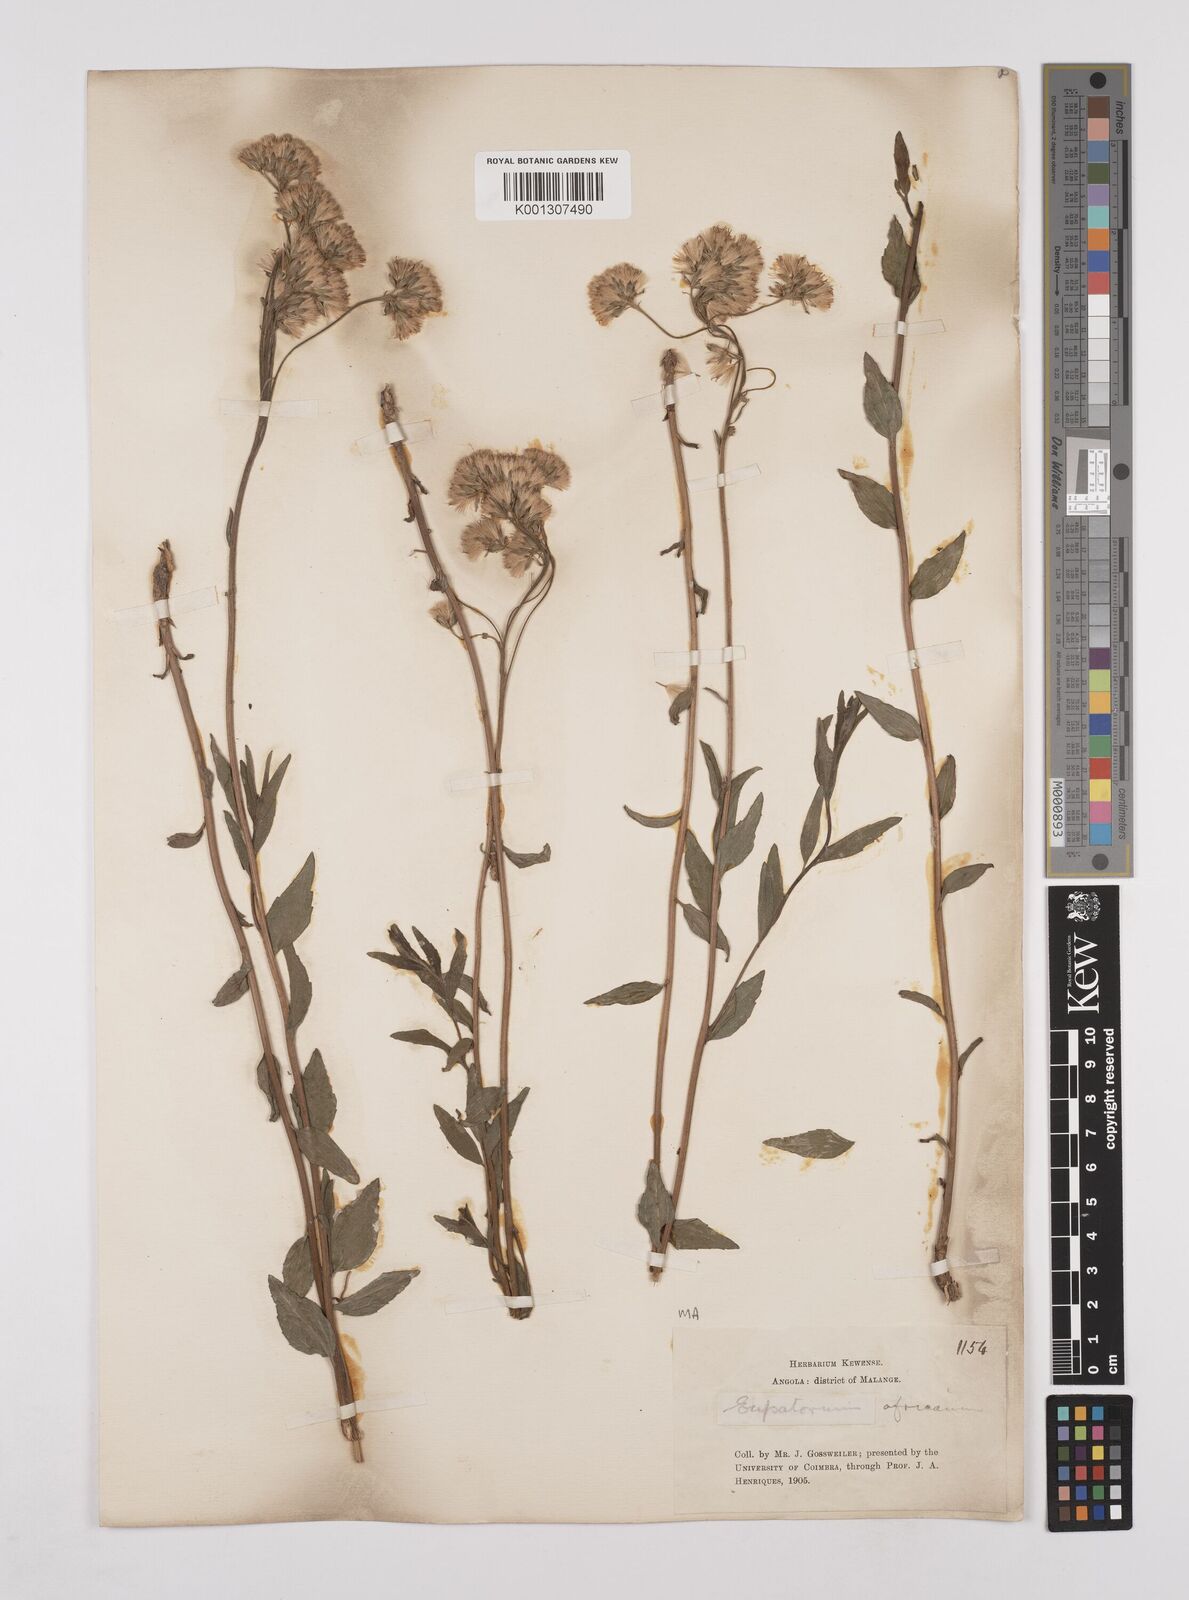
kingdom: Plantae
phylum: Tracheophyta
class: Magnoliopsida
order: Asterales
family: Asteraceae
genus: Stomatanthes
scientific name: Stomatanthes africanus
